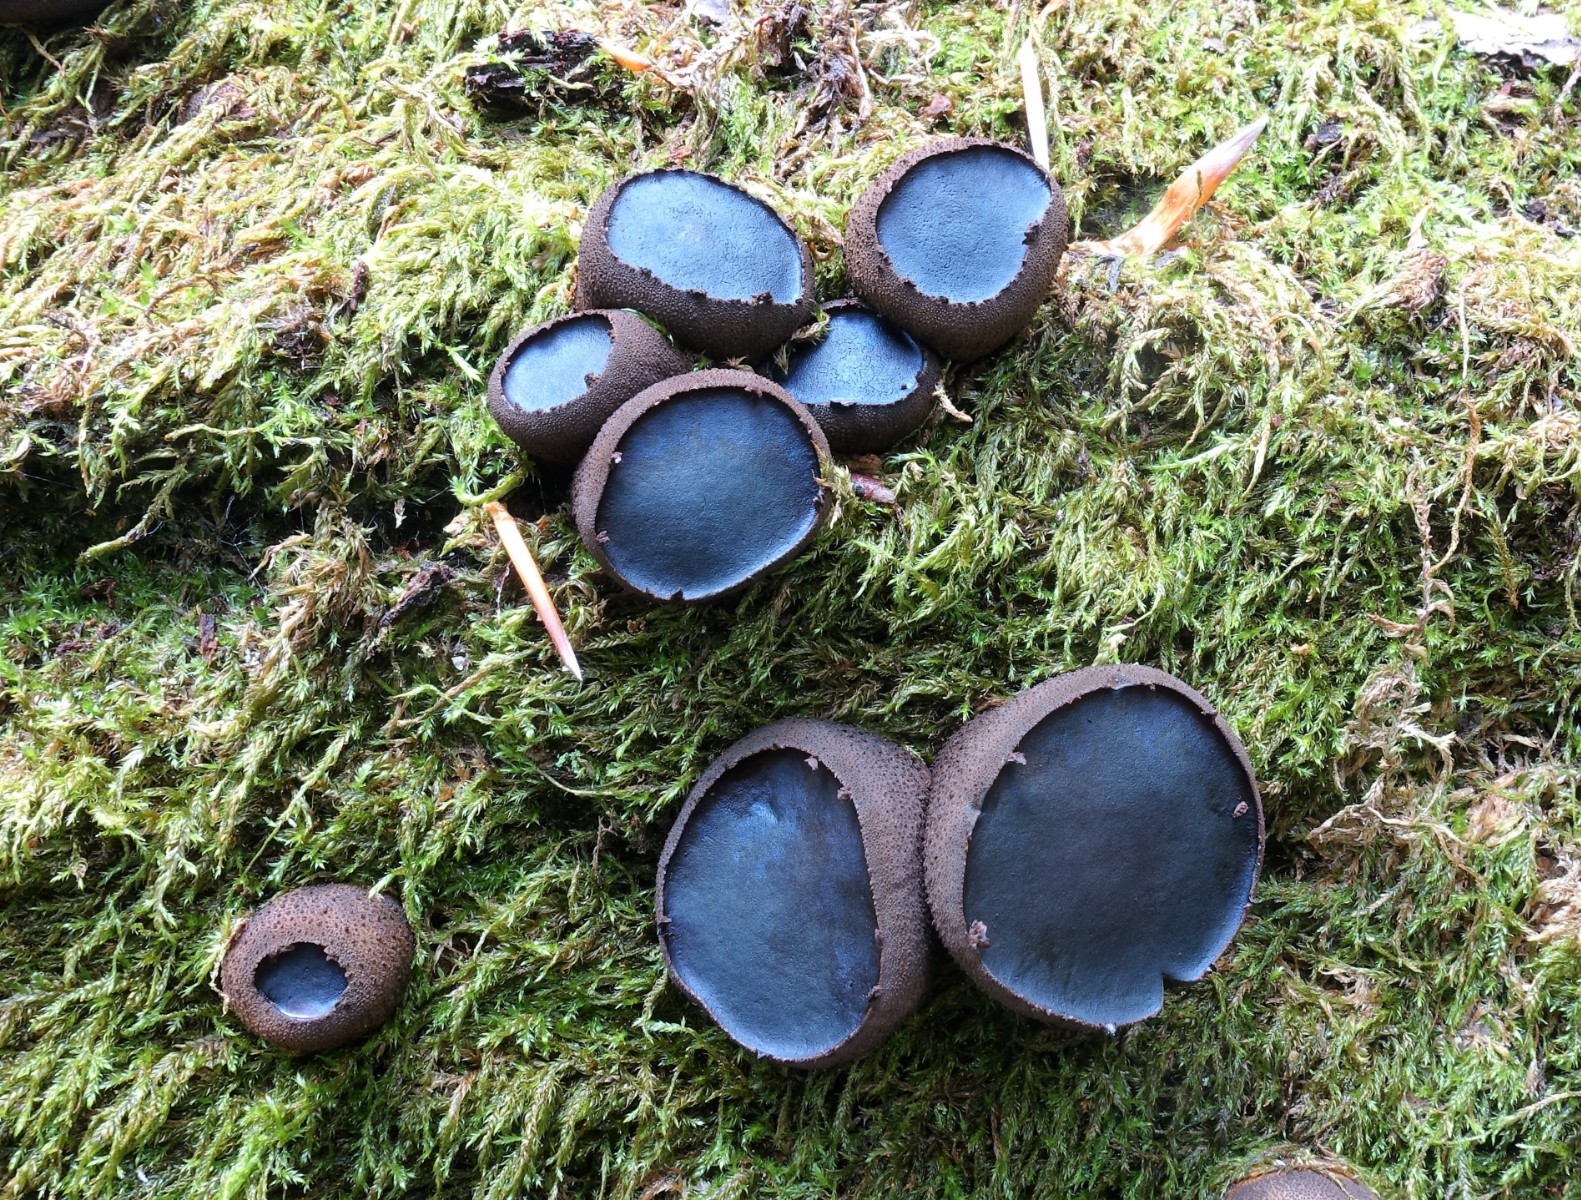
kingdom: Fungi
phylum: Ascomycota
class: Leotiomycetes
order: Phacidiales
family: Phacidiaceae
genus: Bulgaria
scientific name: Bulgaria inquinans
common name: afsmittende topsvamp
